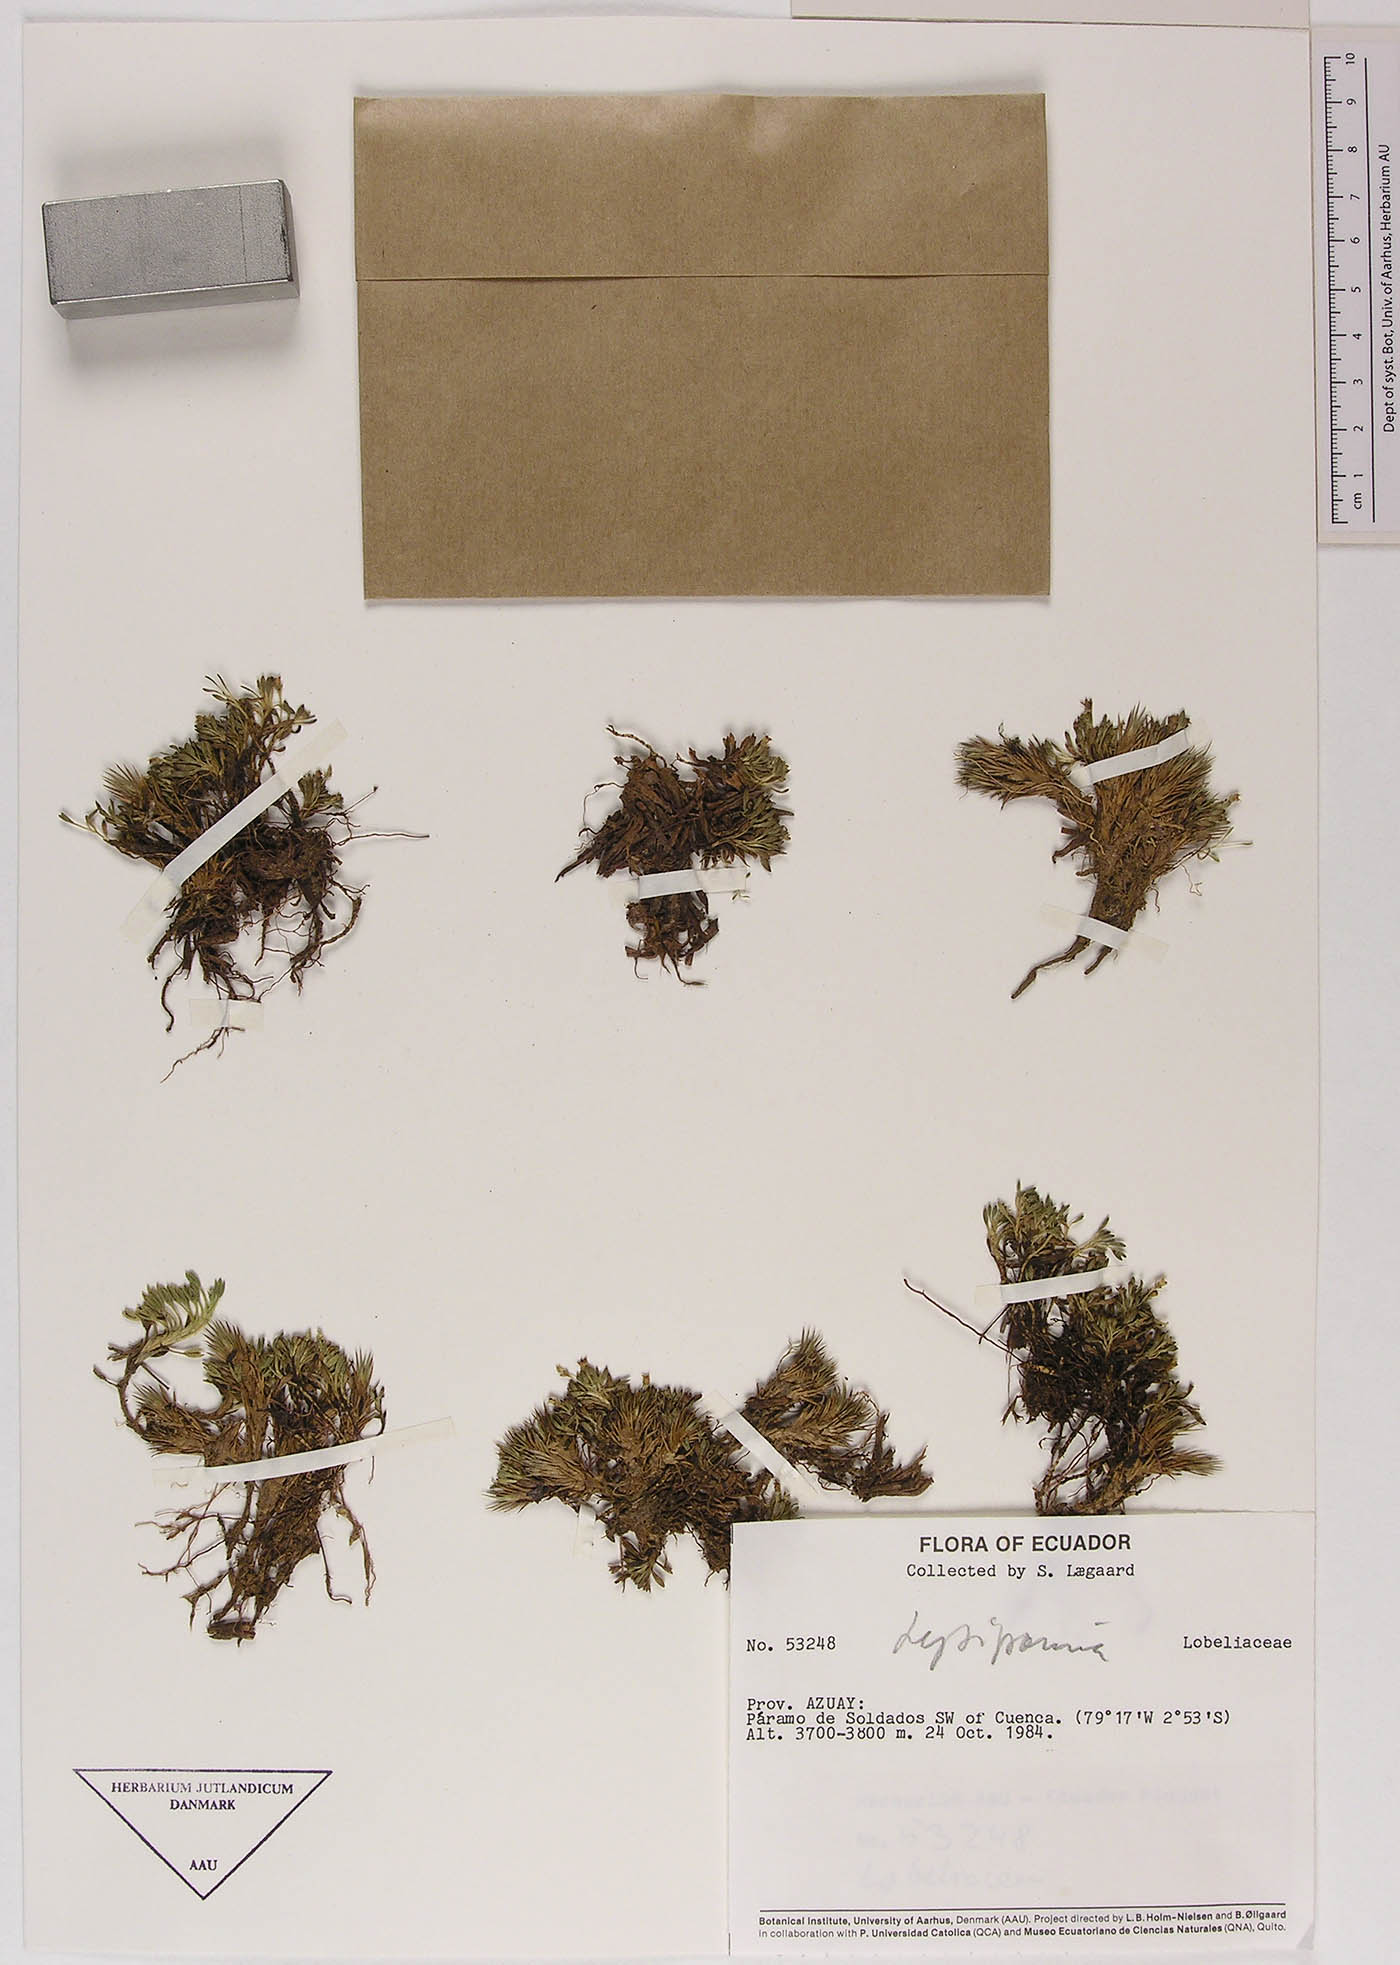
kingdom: Plantae
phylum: Tracheophyta
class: Magnoliopsida
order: Asterales
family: Campanulaceae
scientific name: Campanulaceae
